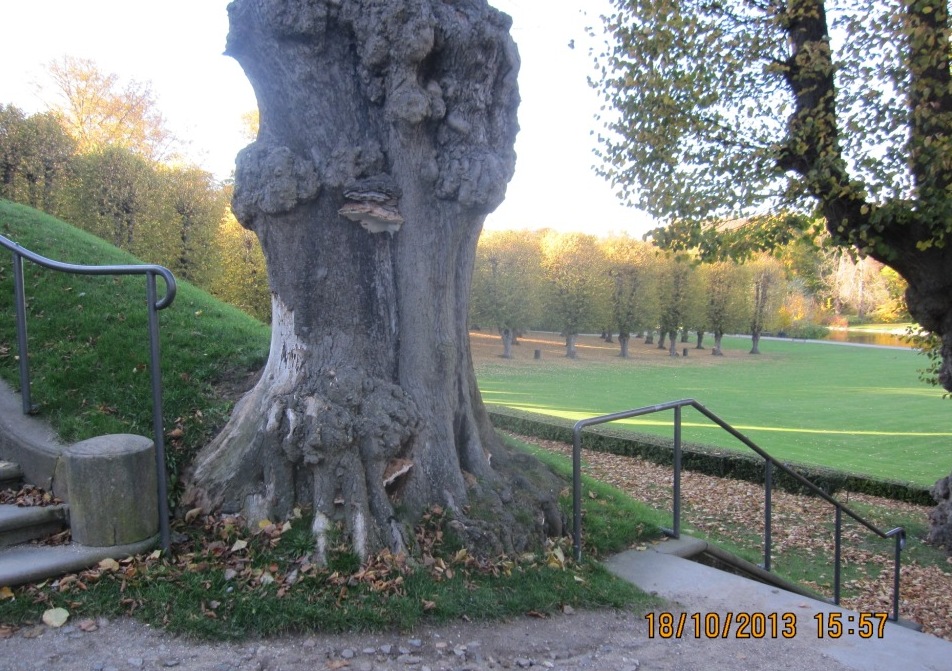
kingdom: Fungi
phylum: Basidiomycota
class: Agaricomycetes
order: Polyporales
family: Polyporaceae
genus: Ganoderma
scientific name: Ganoderma adspersum
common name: grov lakporesvamp
